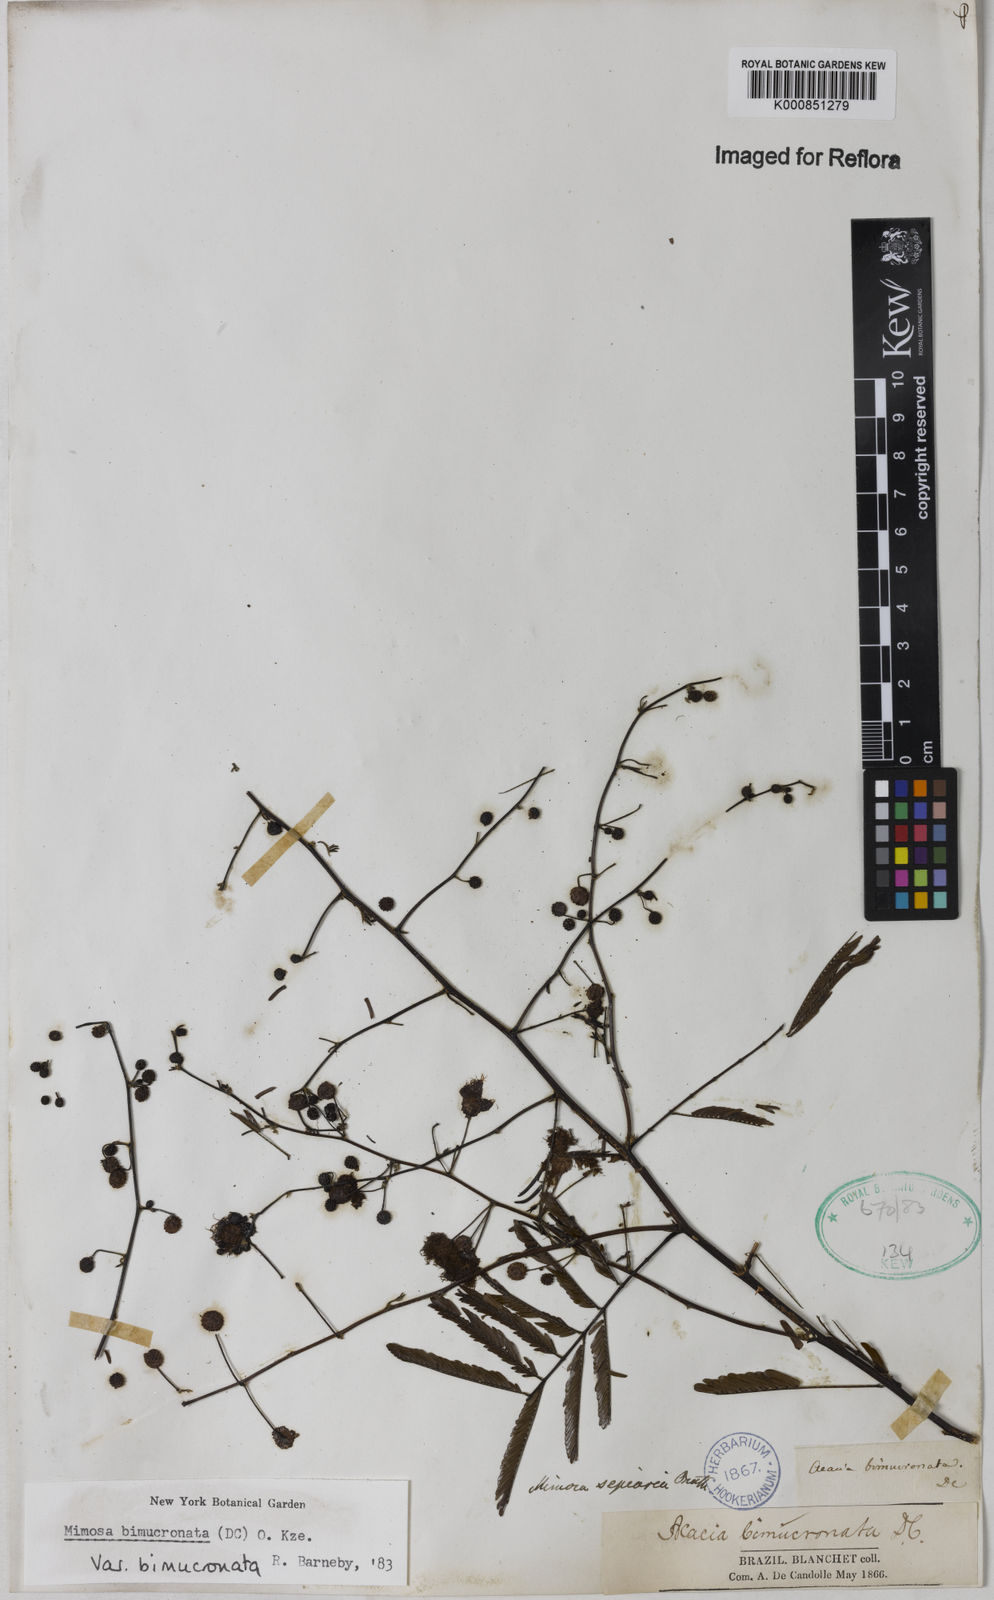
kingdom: Plantae
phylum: Tracheophyta
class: Magnoliopsida
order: Fabales
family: Fabaceae
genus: Mimosa
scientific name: Mimosa bimucronata
